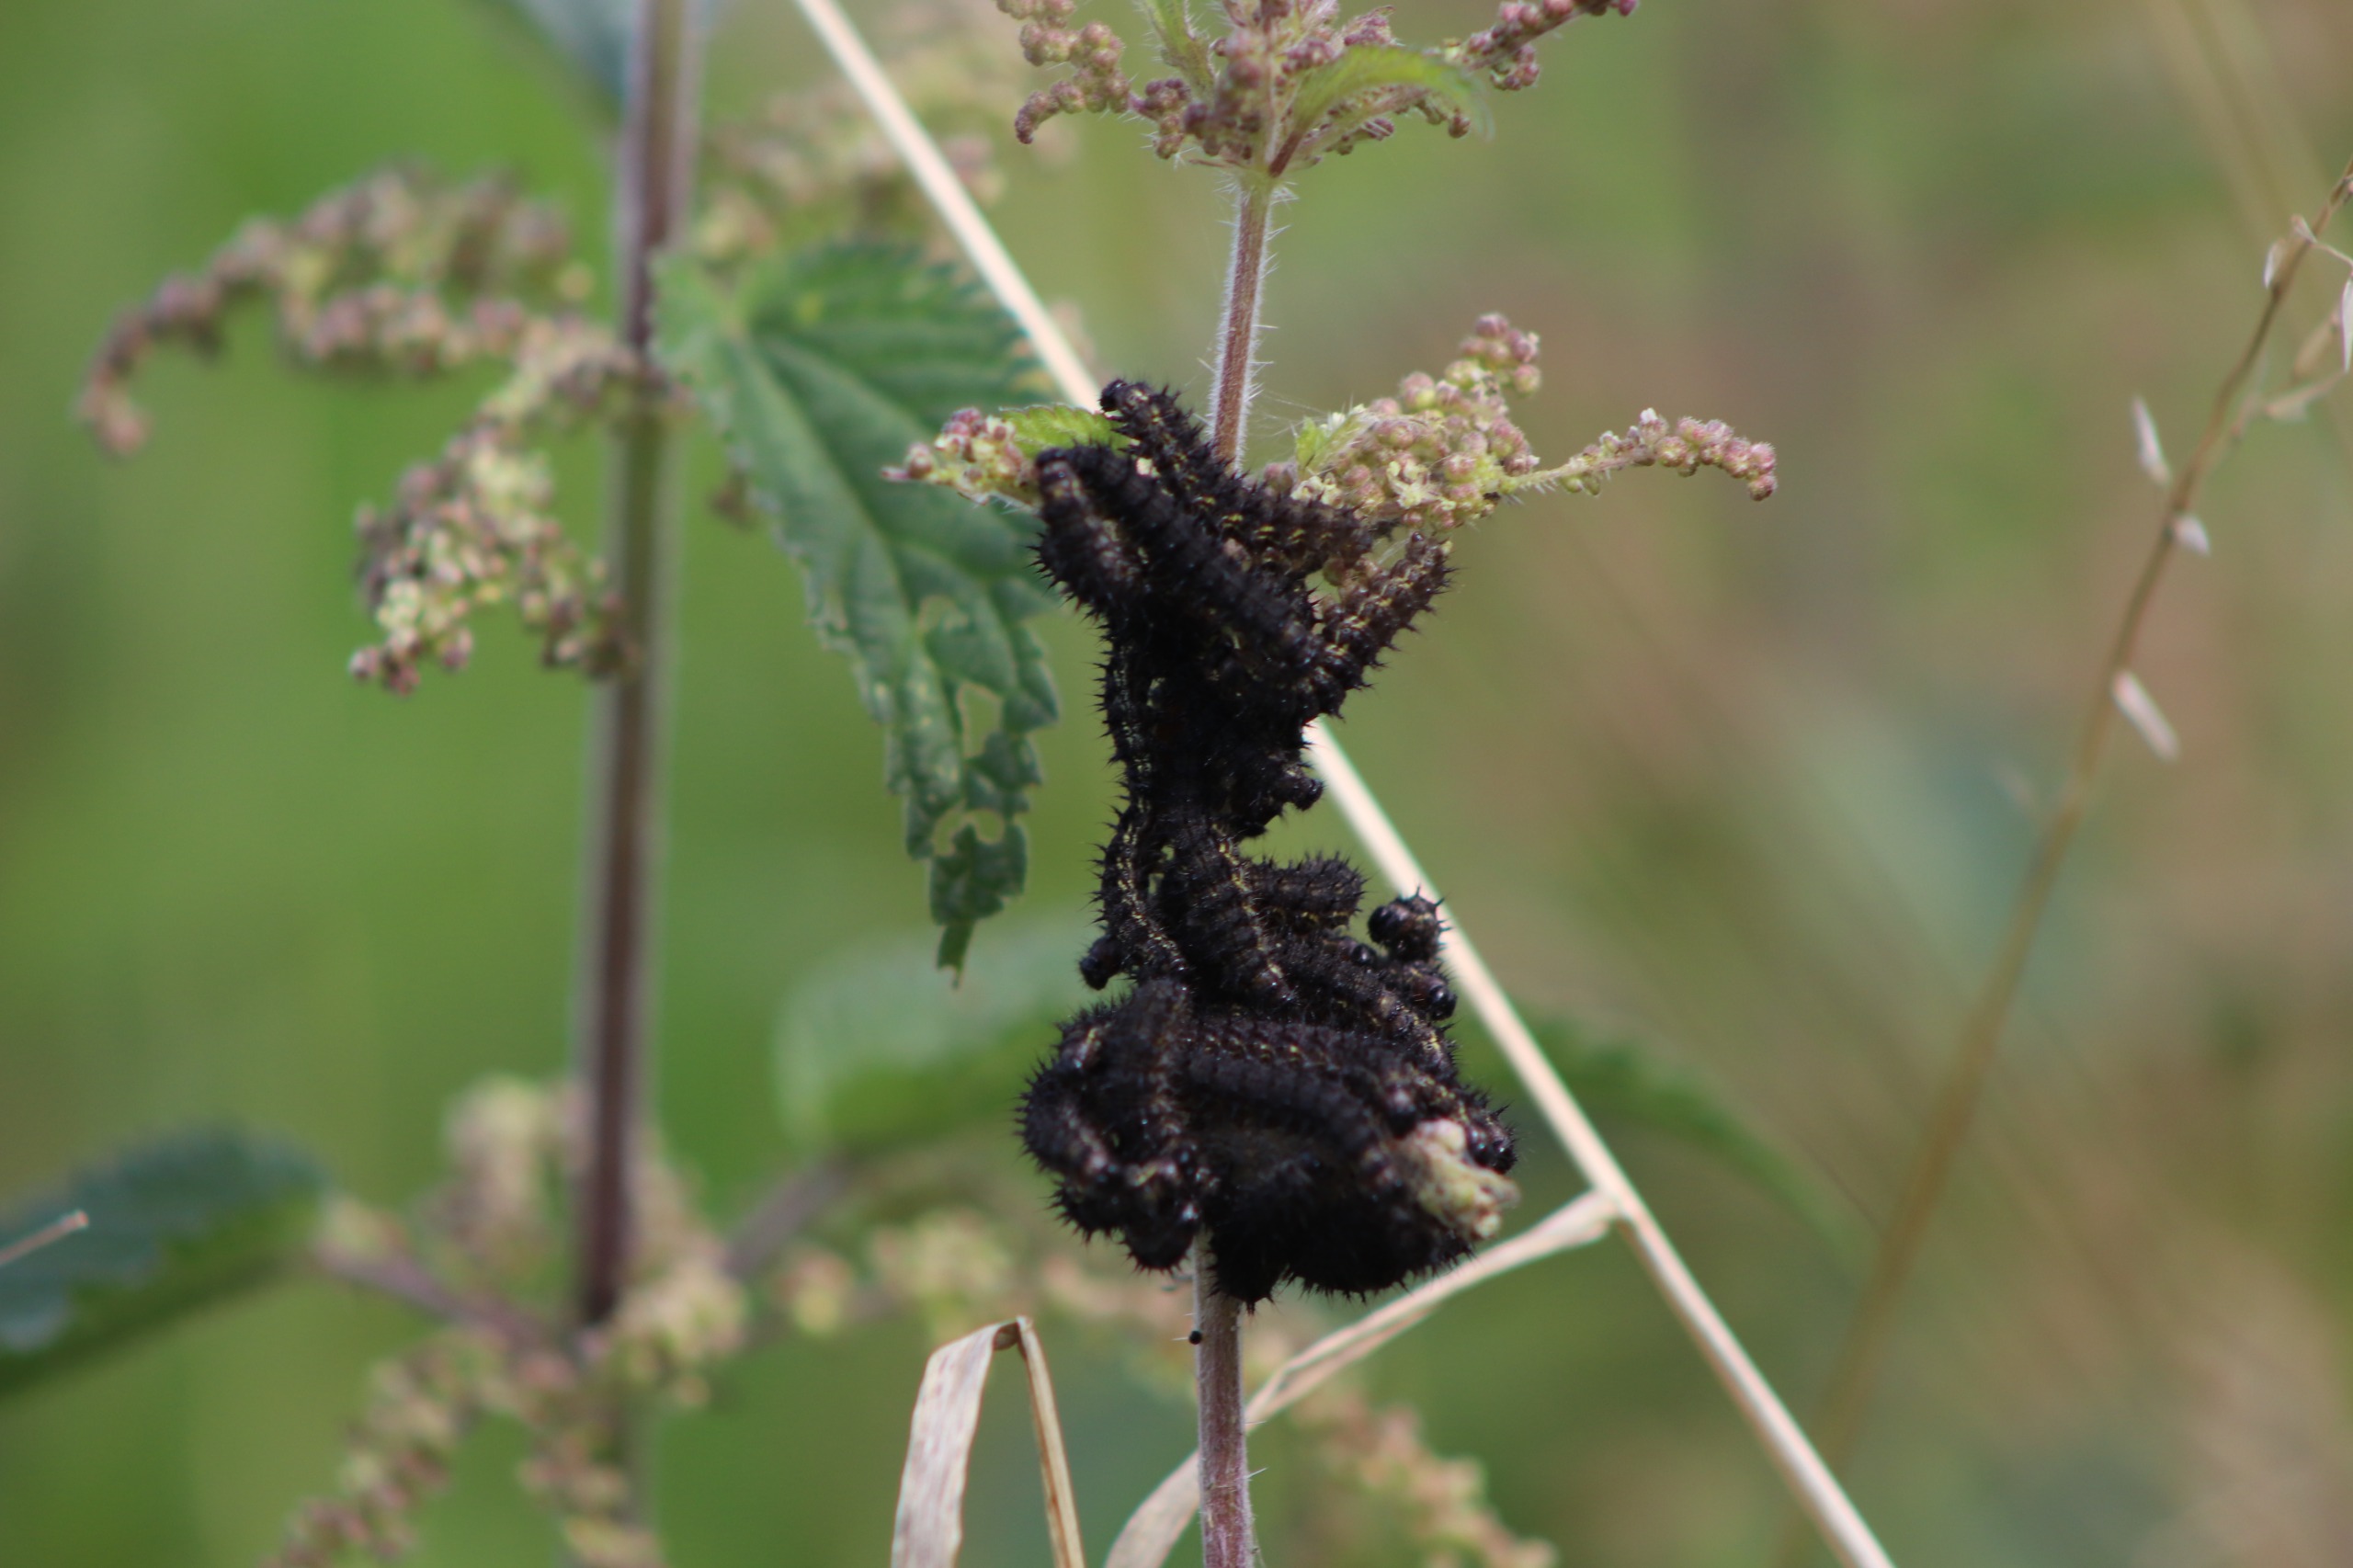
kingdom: Animalia
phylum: Arthropoda
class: Insecta
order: Lepidoptera
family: Nymphalidae
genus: Aglais
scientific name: Aglais io
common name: Dagpåfugleøje
